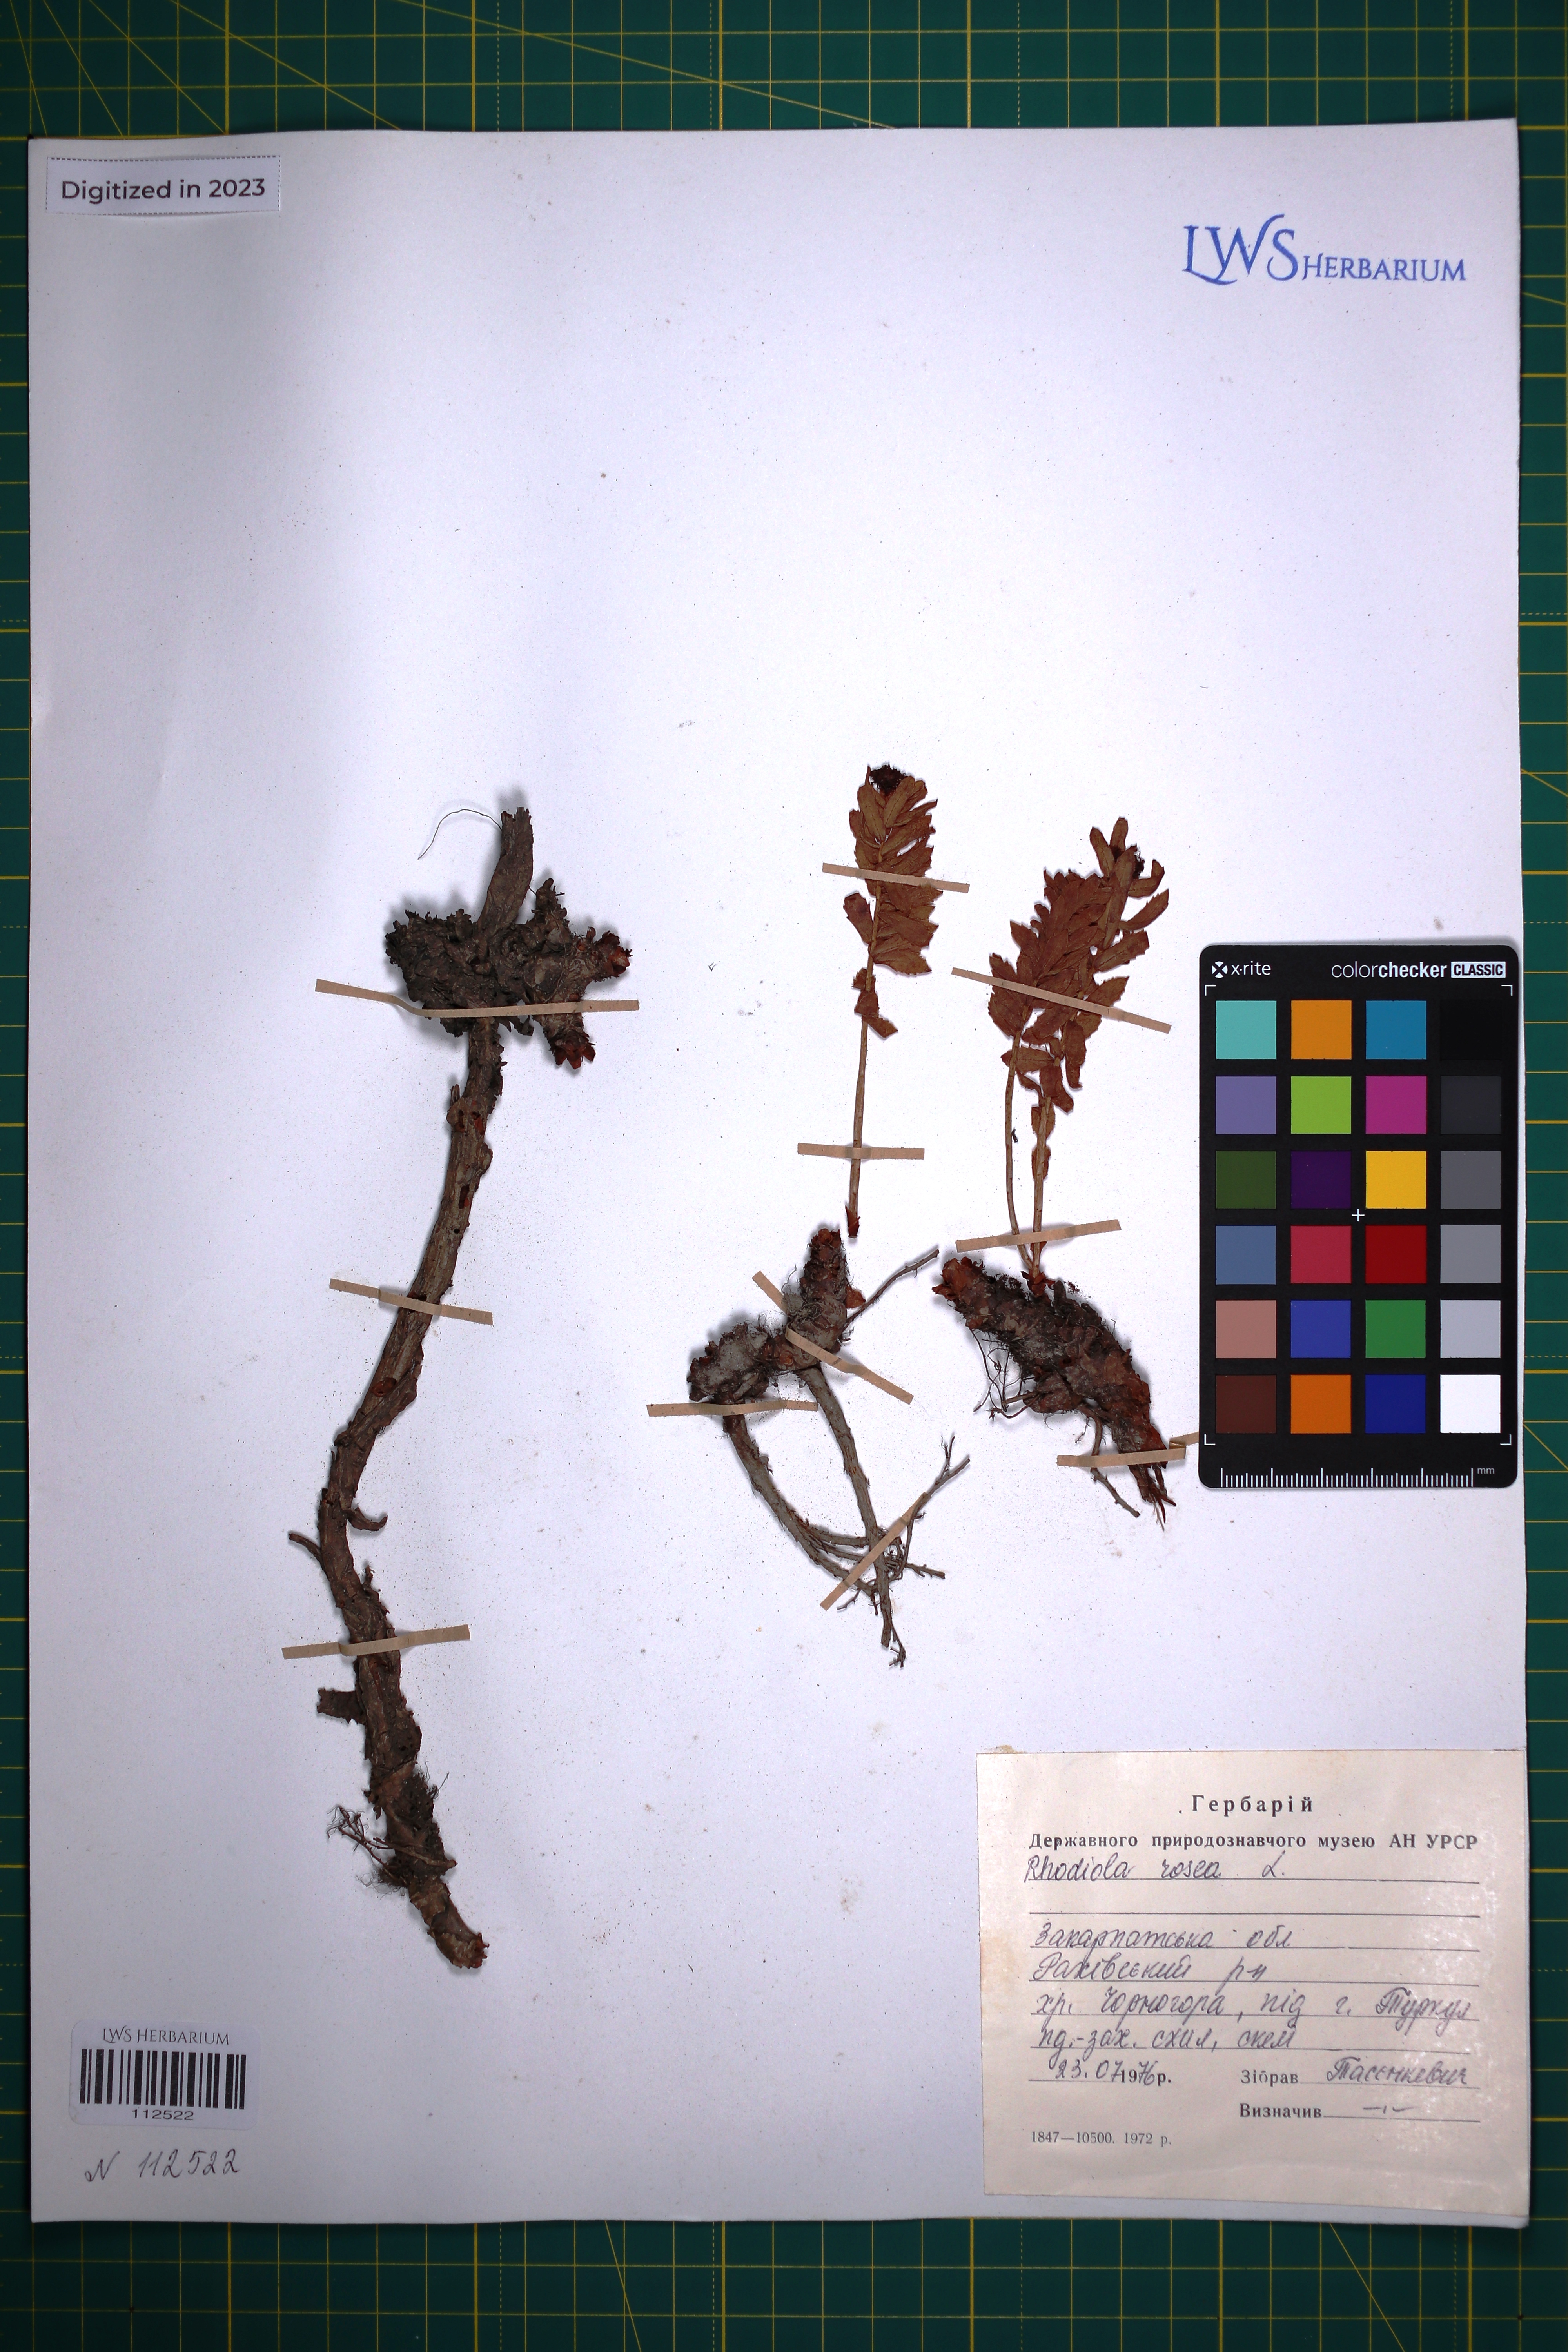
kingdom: Plantae
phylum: Tracheophyta
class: Magnoliopsida
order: Saxifragales
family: Crassulaceae
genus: Rhodiola
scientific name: Rhodiola rosea
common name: Roseroot
